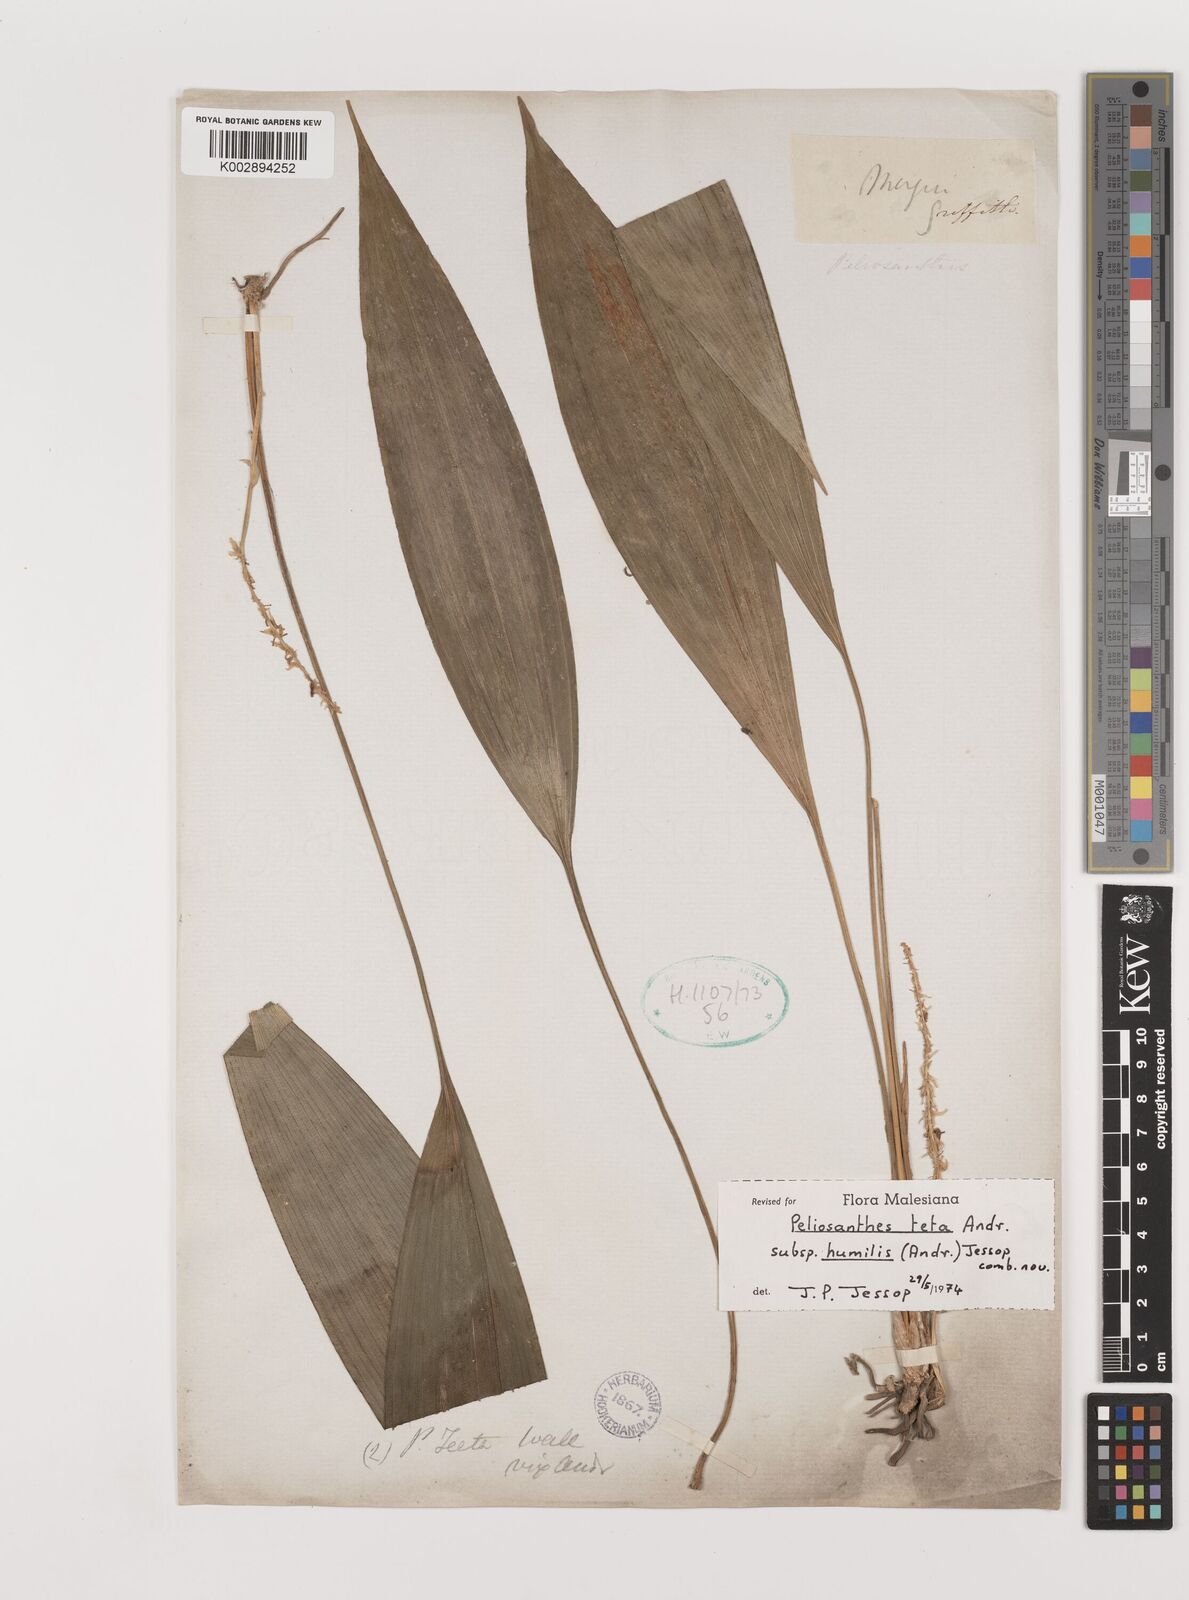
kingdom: Plantae
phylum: Tracheophyta
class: Liliopsida
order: Asparagales
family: Asparagaceae
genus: Peliosanthes
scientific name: Peliosanthes teta
